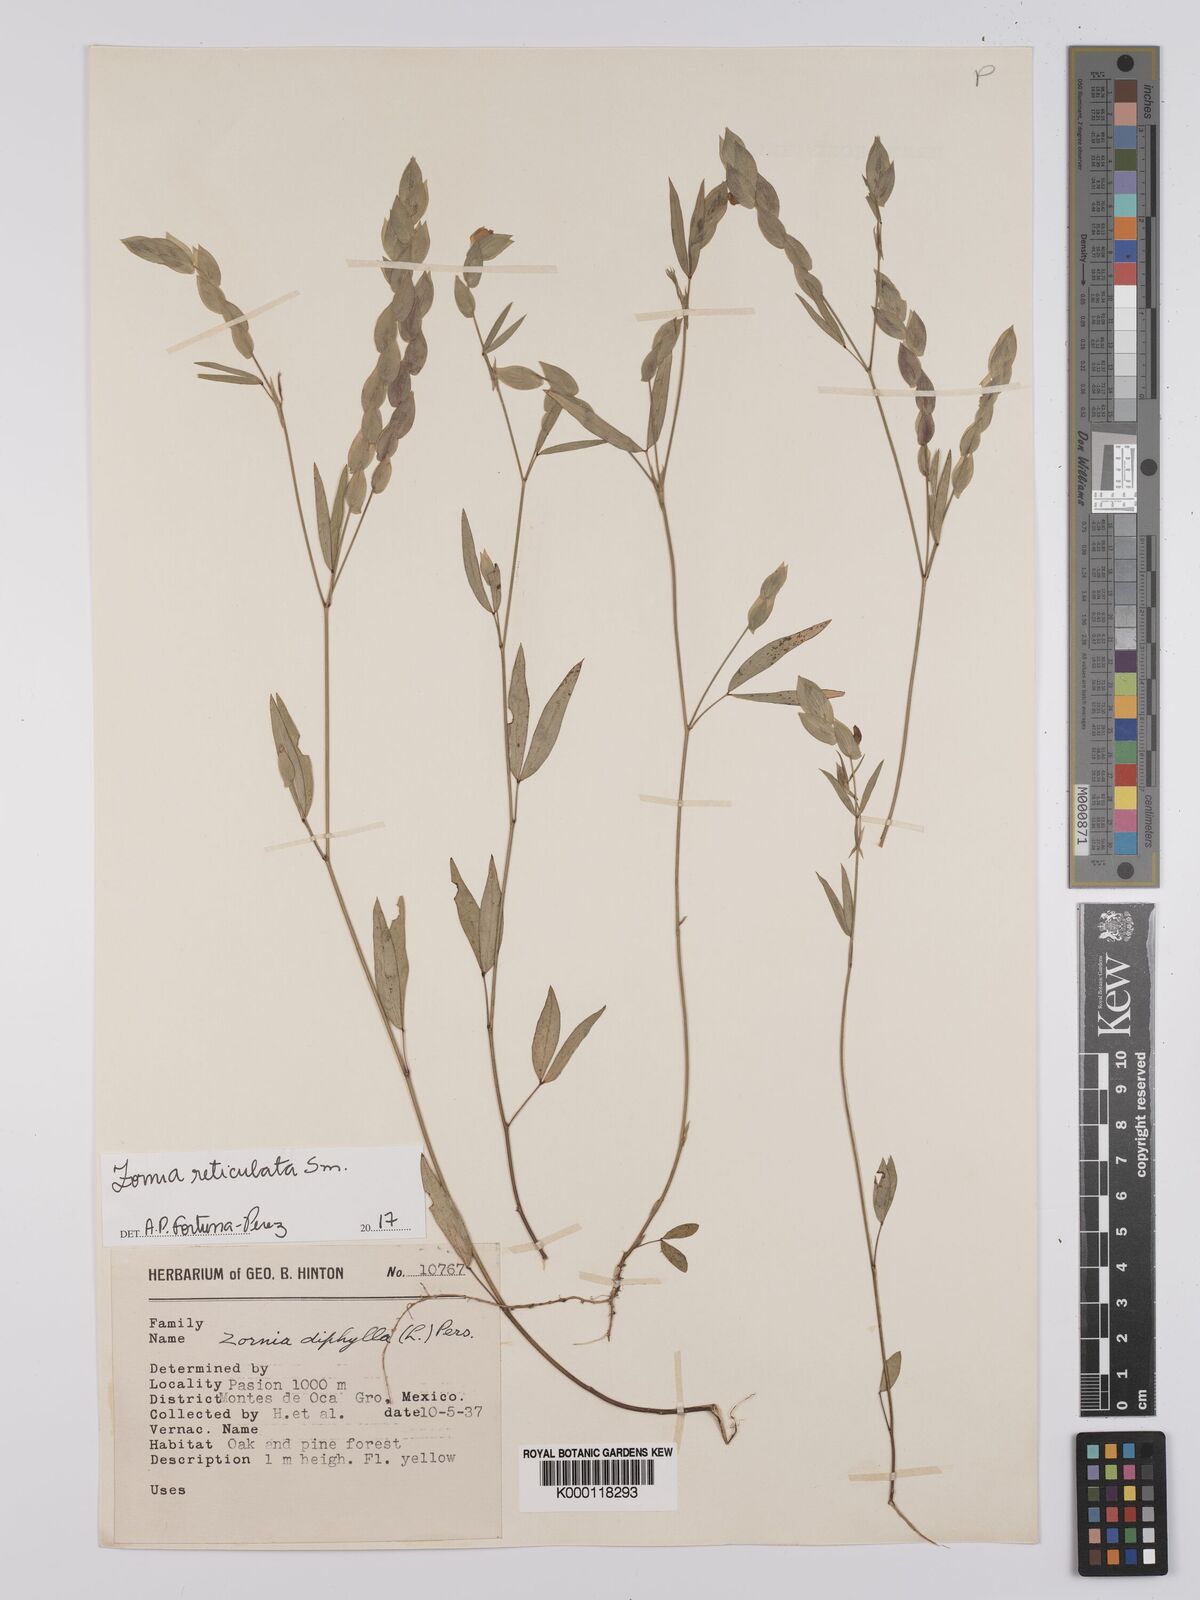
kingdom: Plantae
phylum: Tracheophyta
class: Magnoliopsida
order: Fabales
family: Fabaceae
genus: Zornia
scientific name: Zornia reticulata
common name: Reticulate viperina
